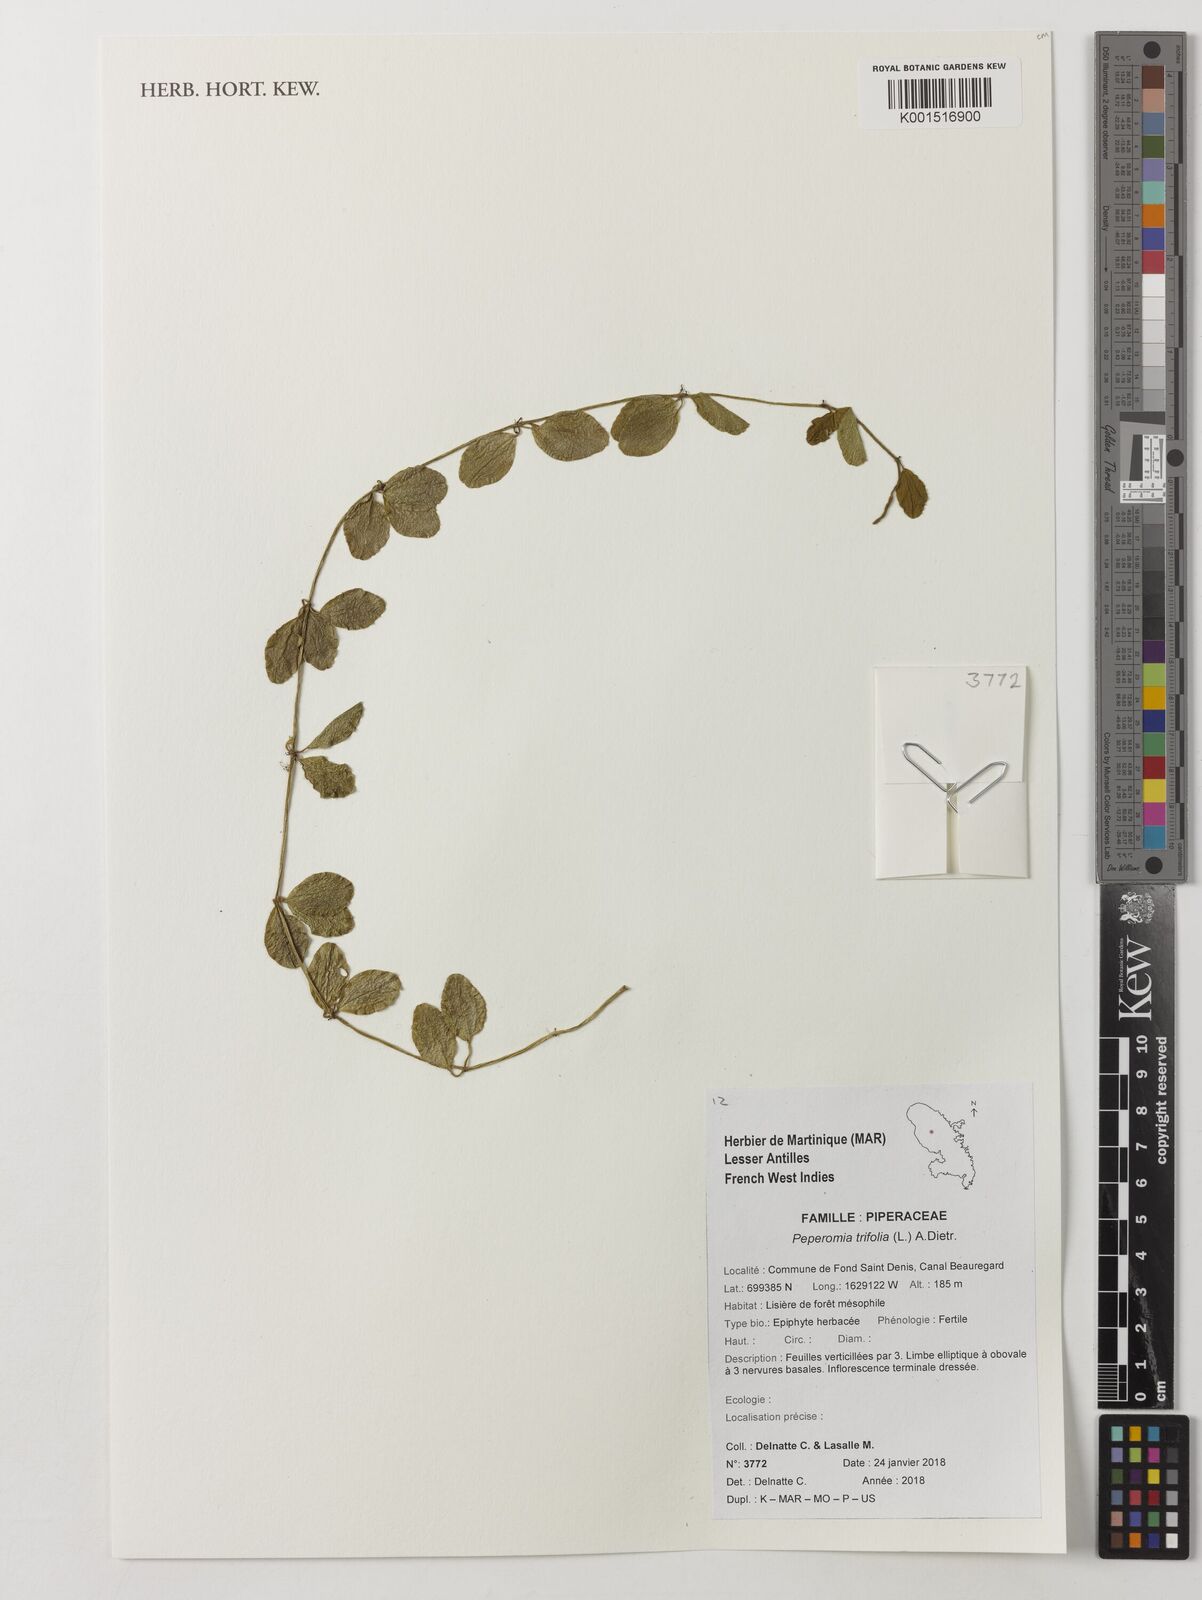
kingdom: Plantae
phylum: Tracheophyta
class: Magnoliopsida
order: Piperales
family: Piperaceae
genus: Peperomia
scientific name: Peperomia trifolia
